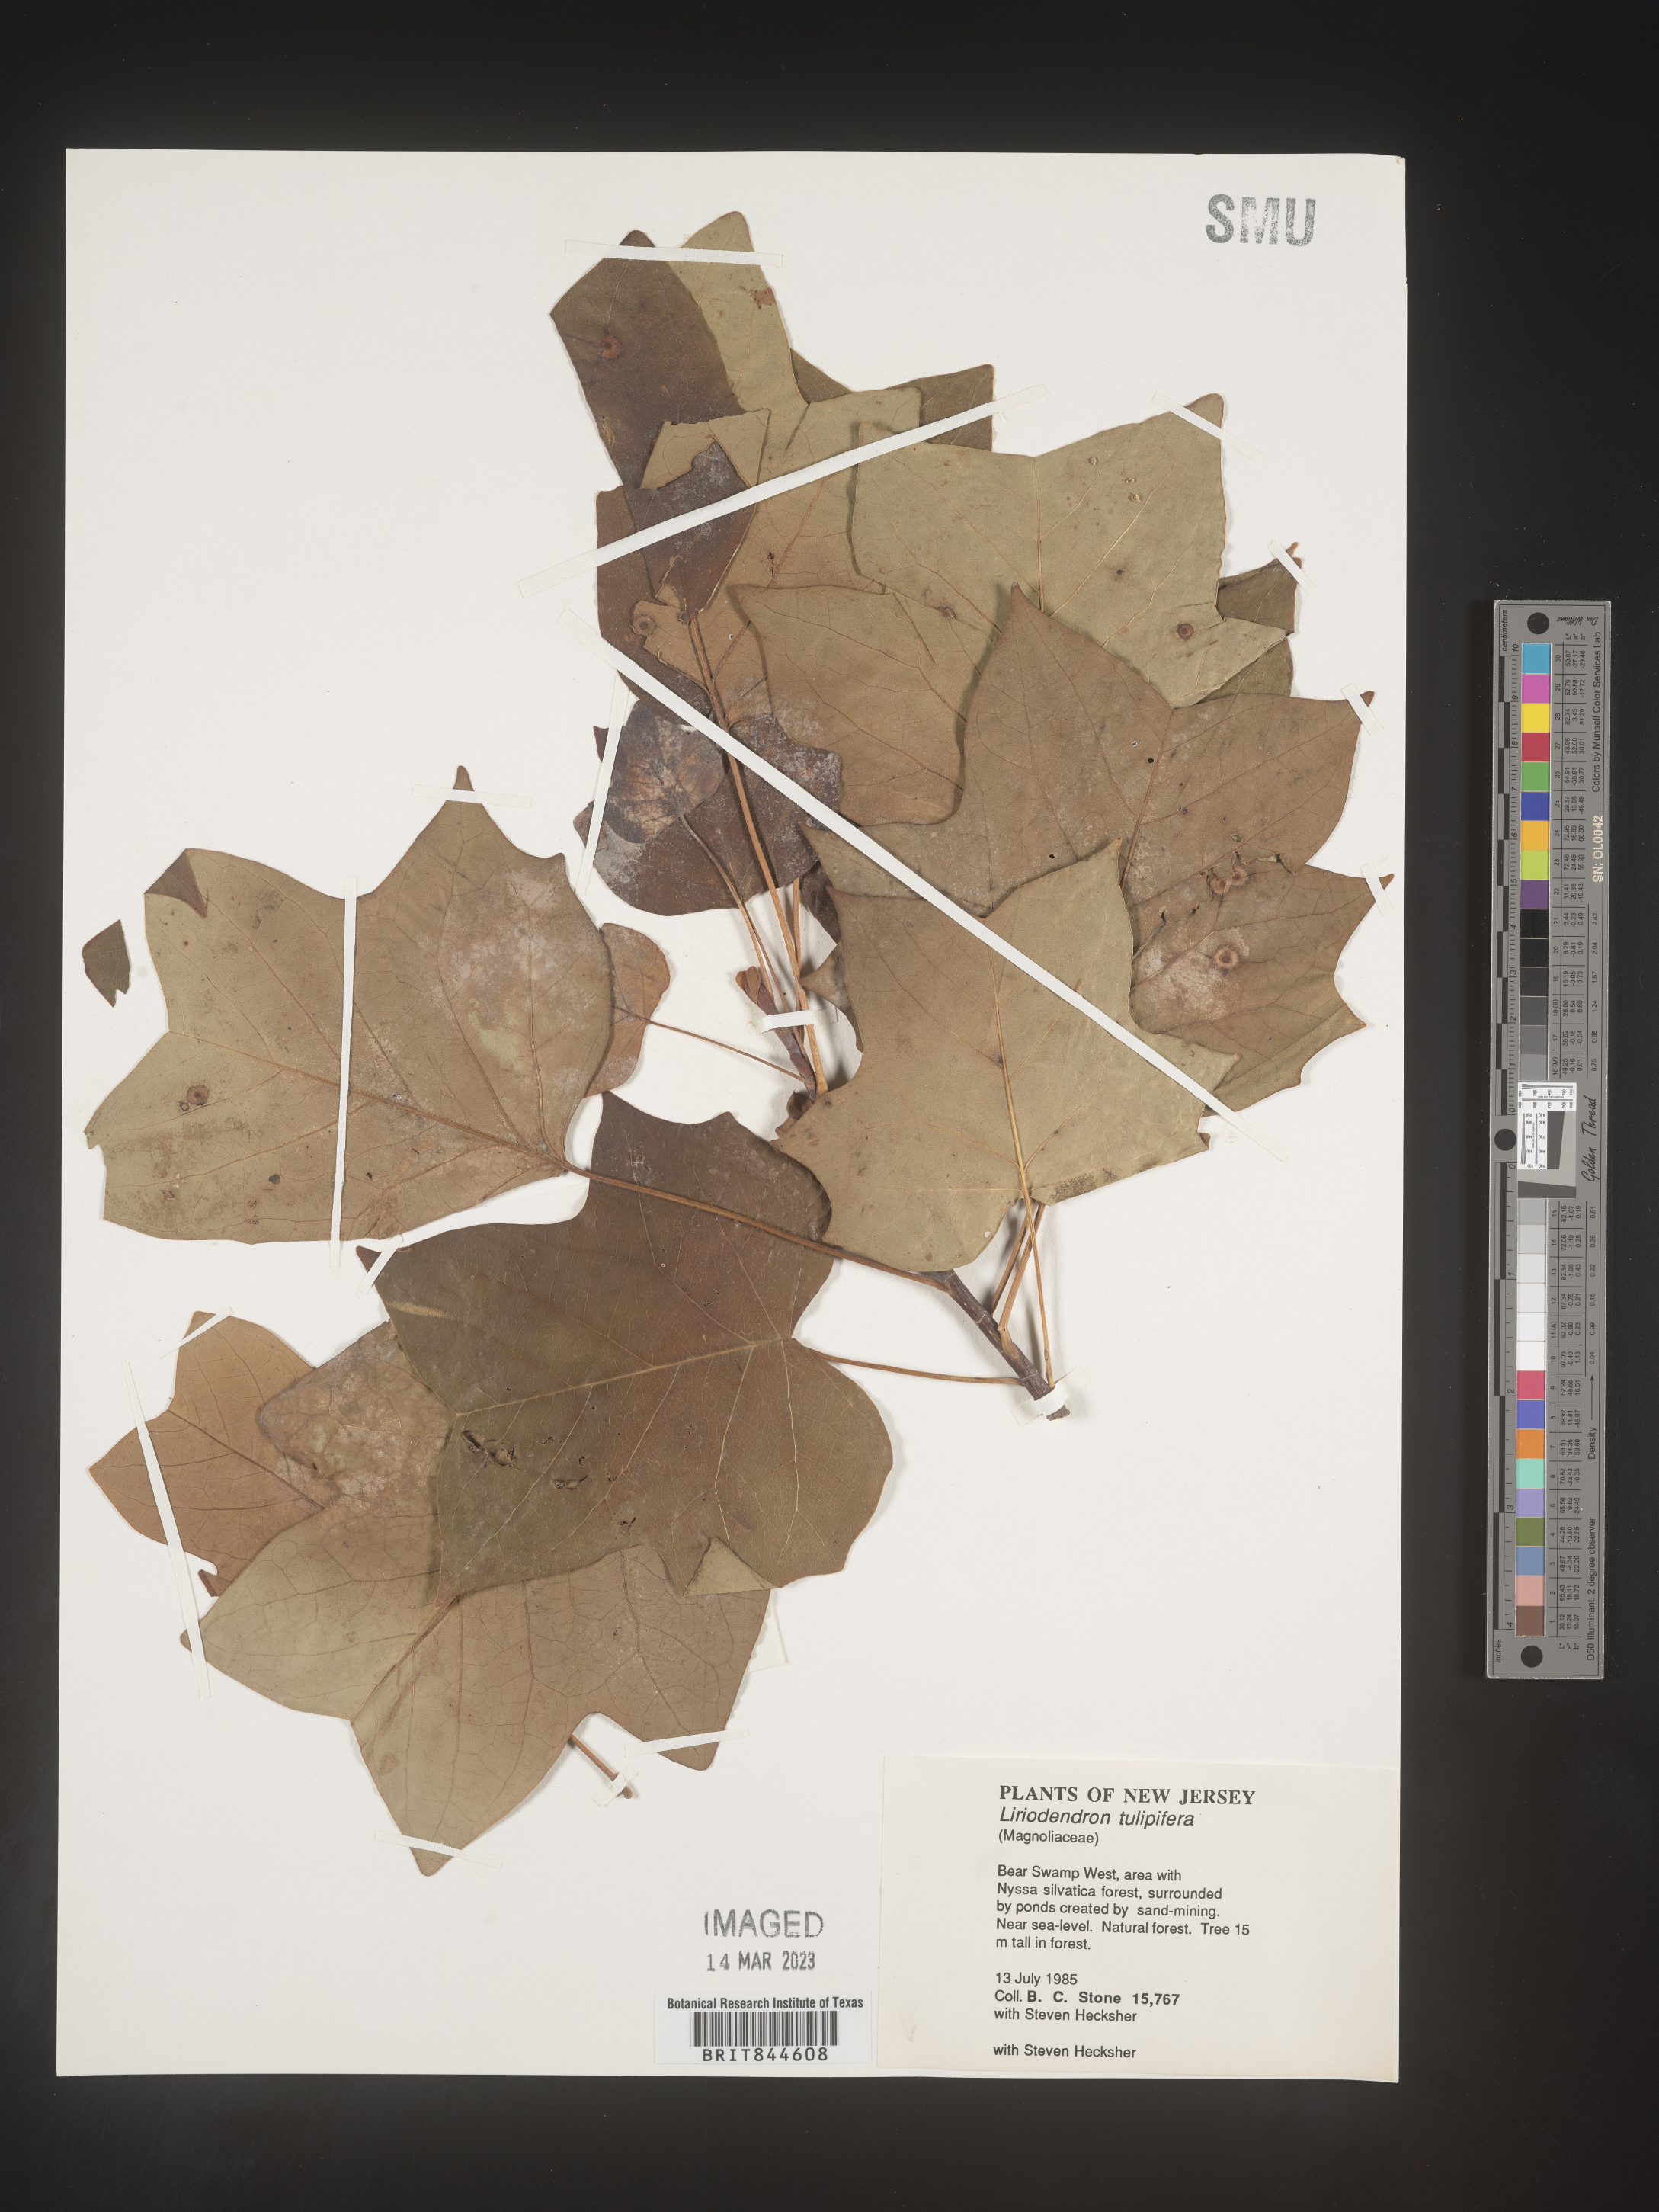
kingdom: Plantae
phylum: Tracheophyta
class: Magnoliopsida
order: Magnoliales
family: Magnoliaceae
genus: Liriodendron
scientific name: Liriodendron tulipifera
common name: Tulip tree
